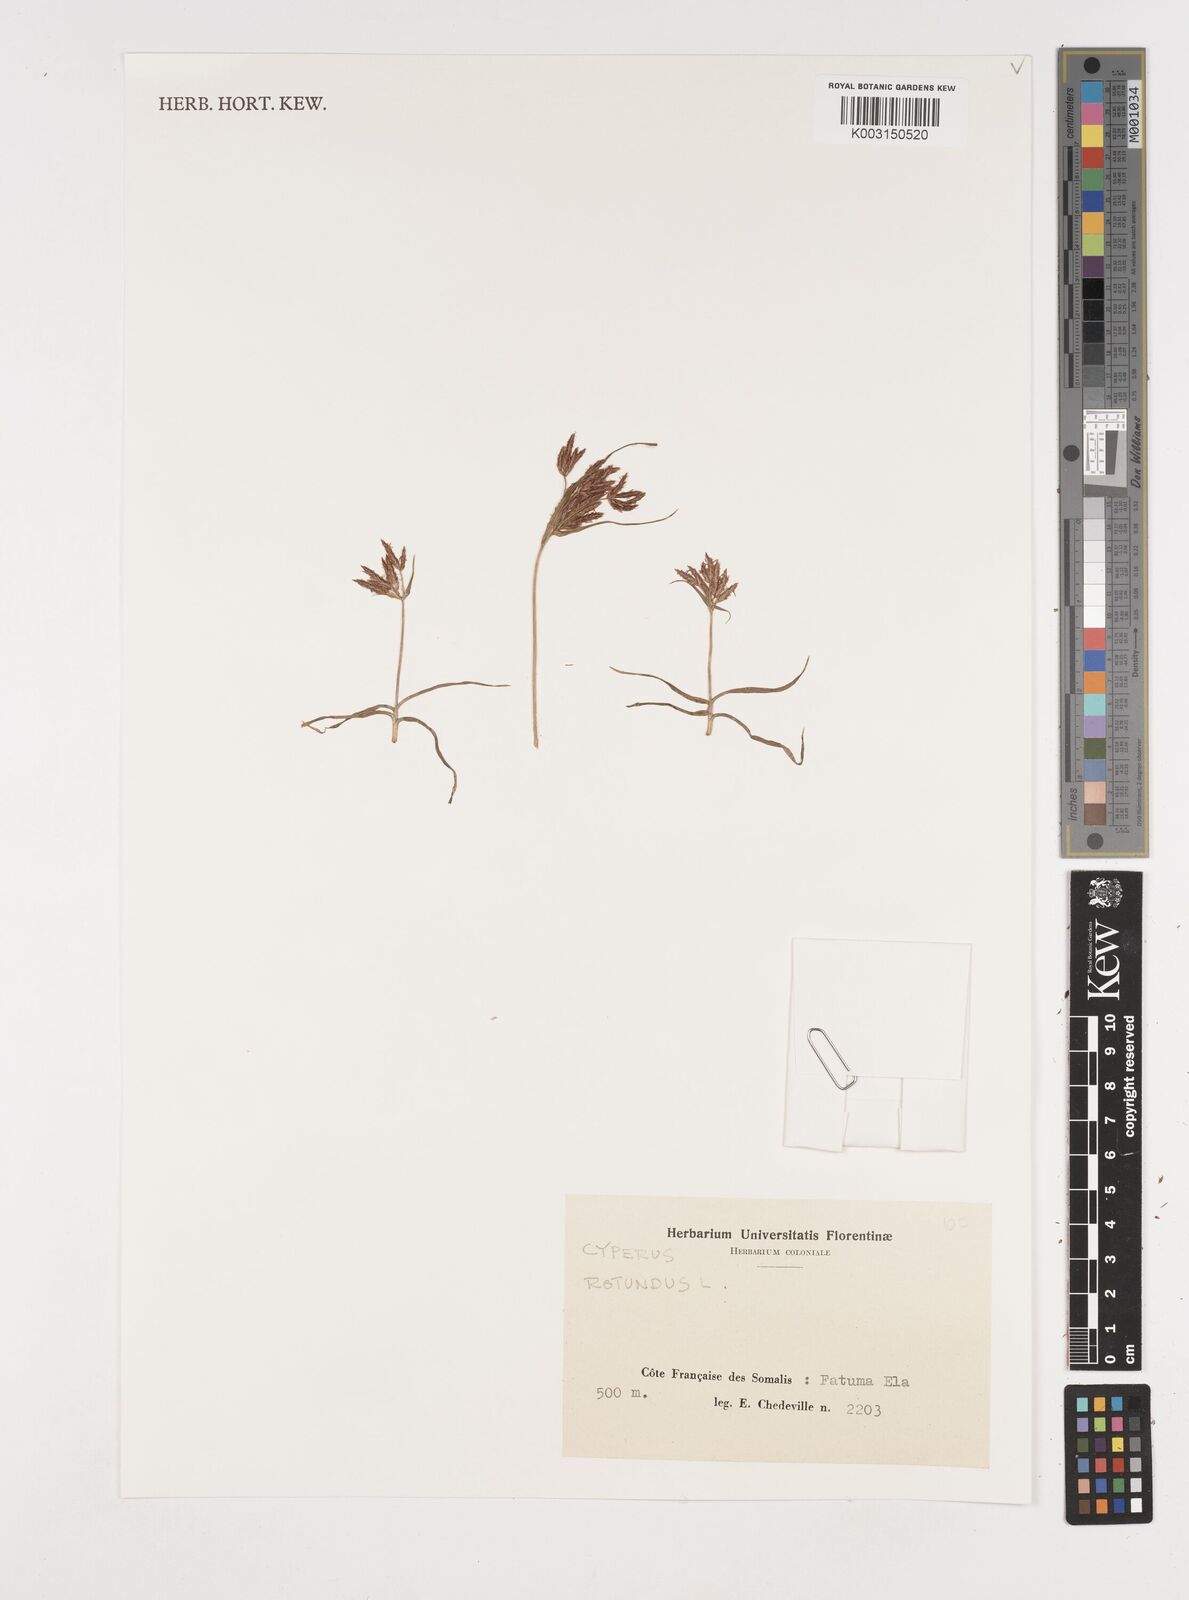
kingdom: Plantae
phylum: Tracheophyta
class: Liliopsida
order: Poales
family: Cyperaceae
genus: Cyperus
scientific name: Cyperus rotundus
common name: Nutgrass
